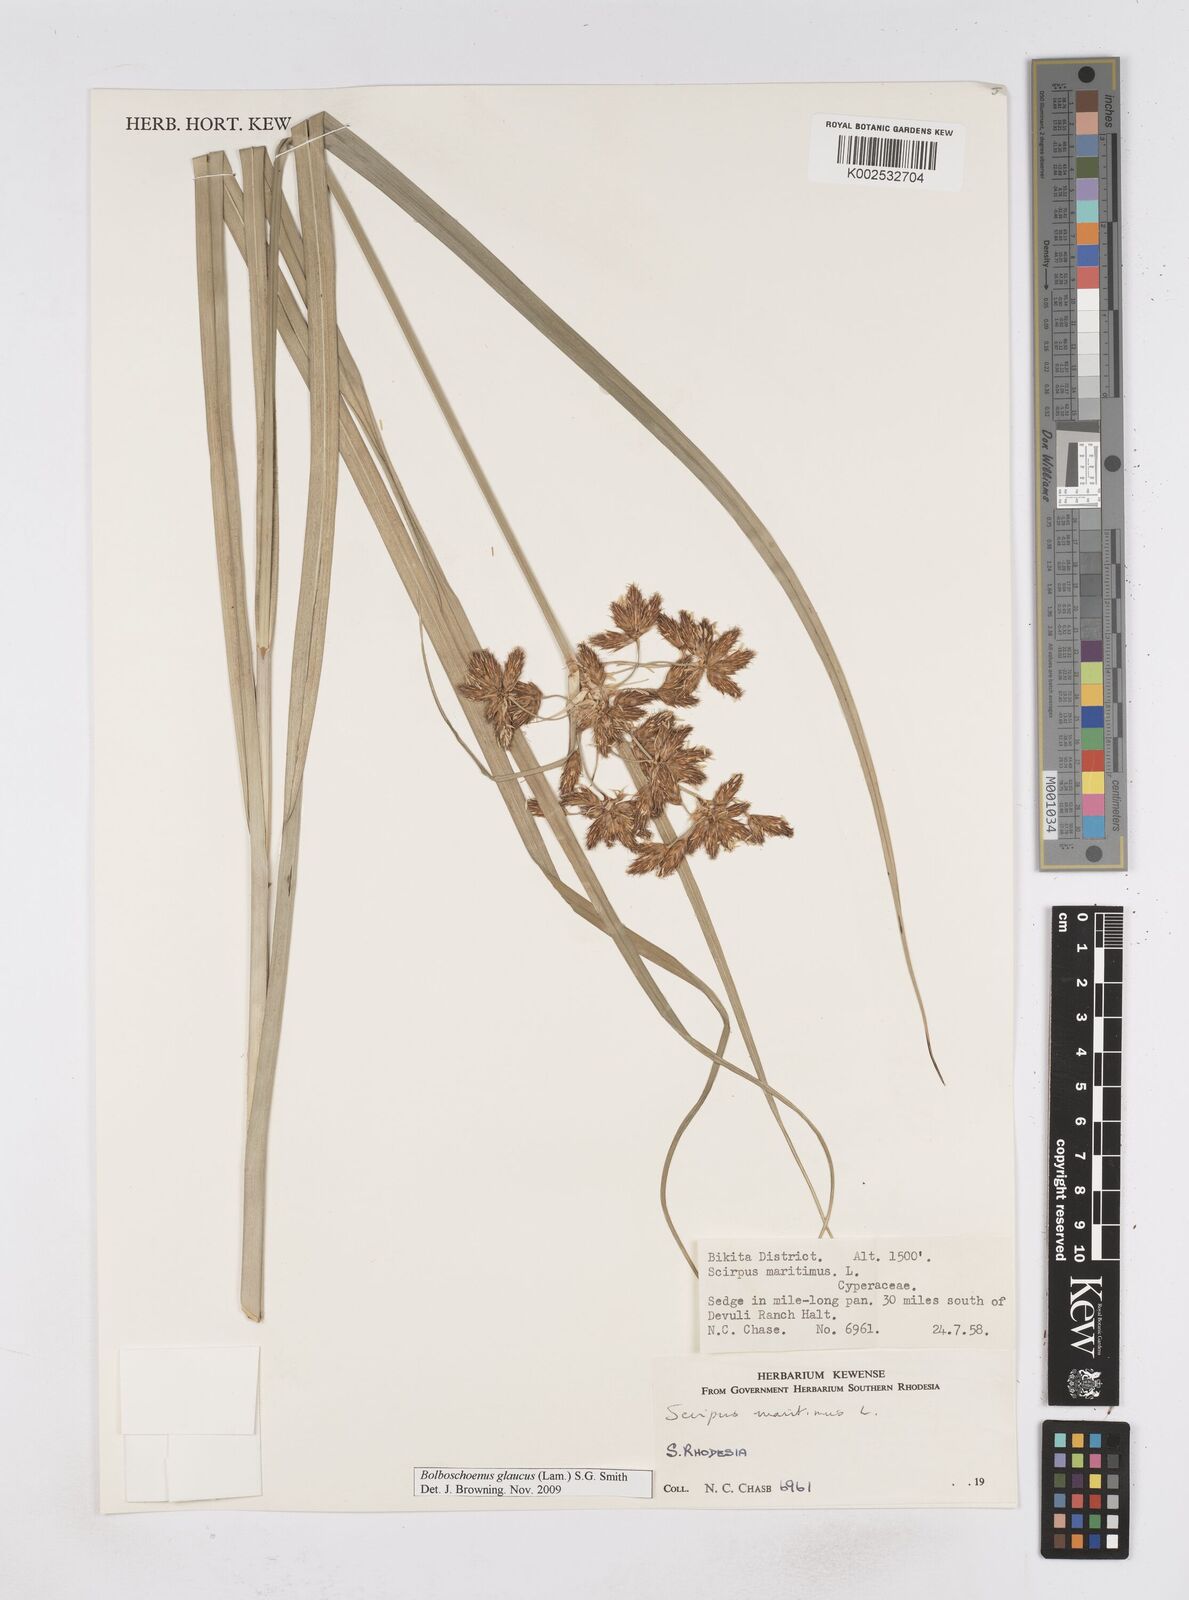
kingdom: Plantae
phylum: Tracheophyta
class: Liliopsida
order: Poales
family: Cyperaceae
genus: Bolboschoenus
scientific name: Bolboschoenus glaucus
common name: Tuberous bulrush
